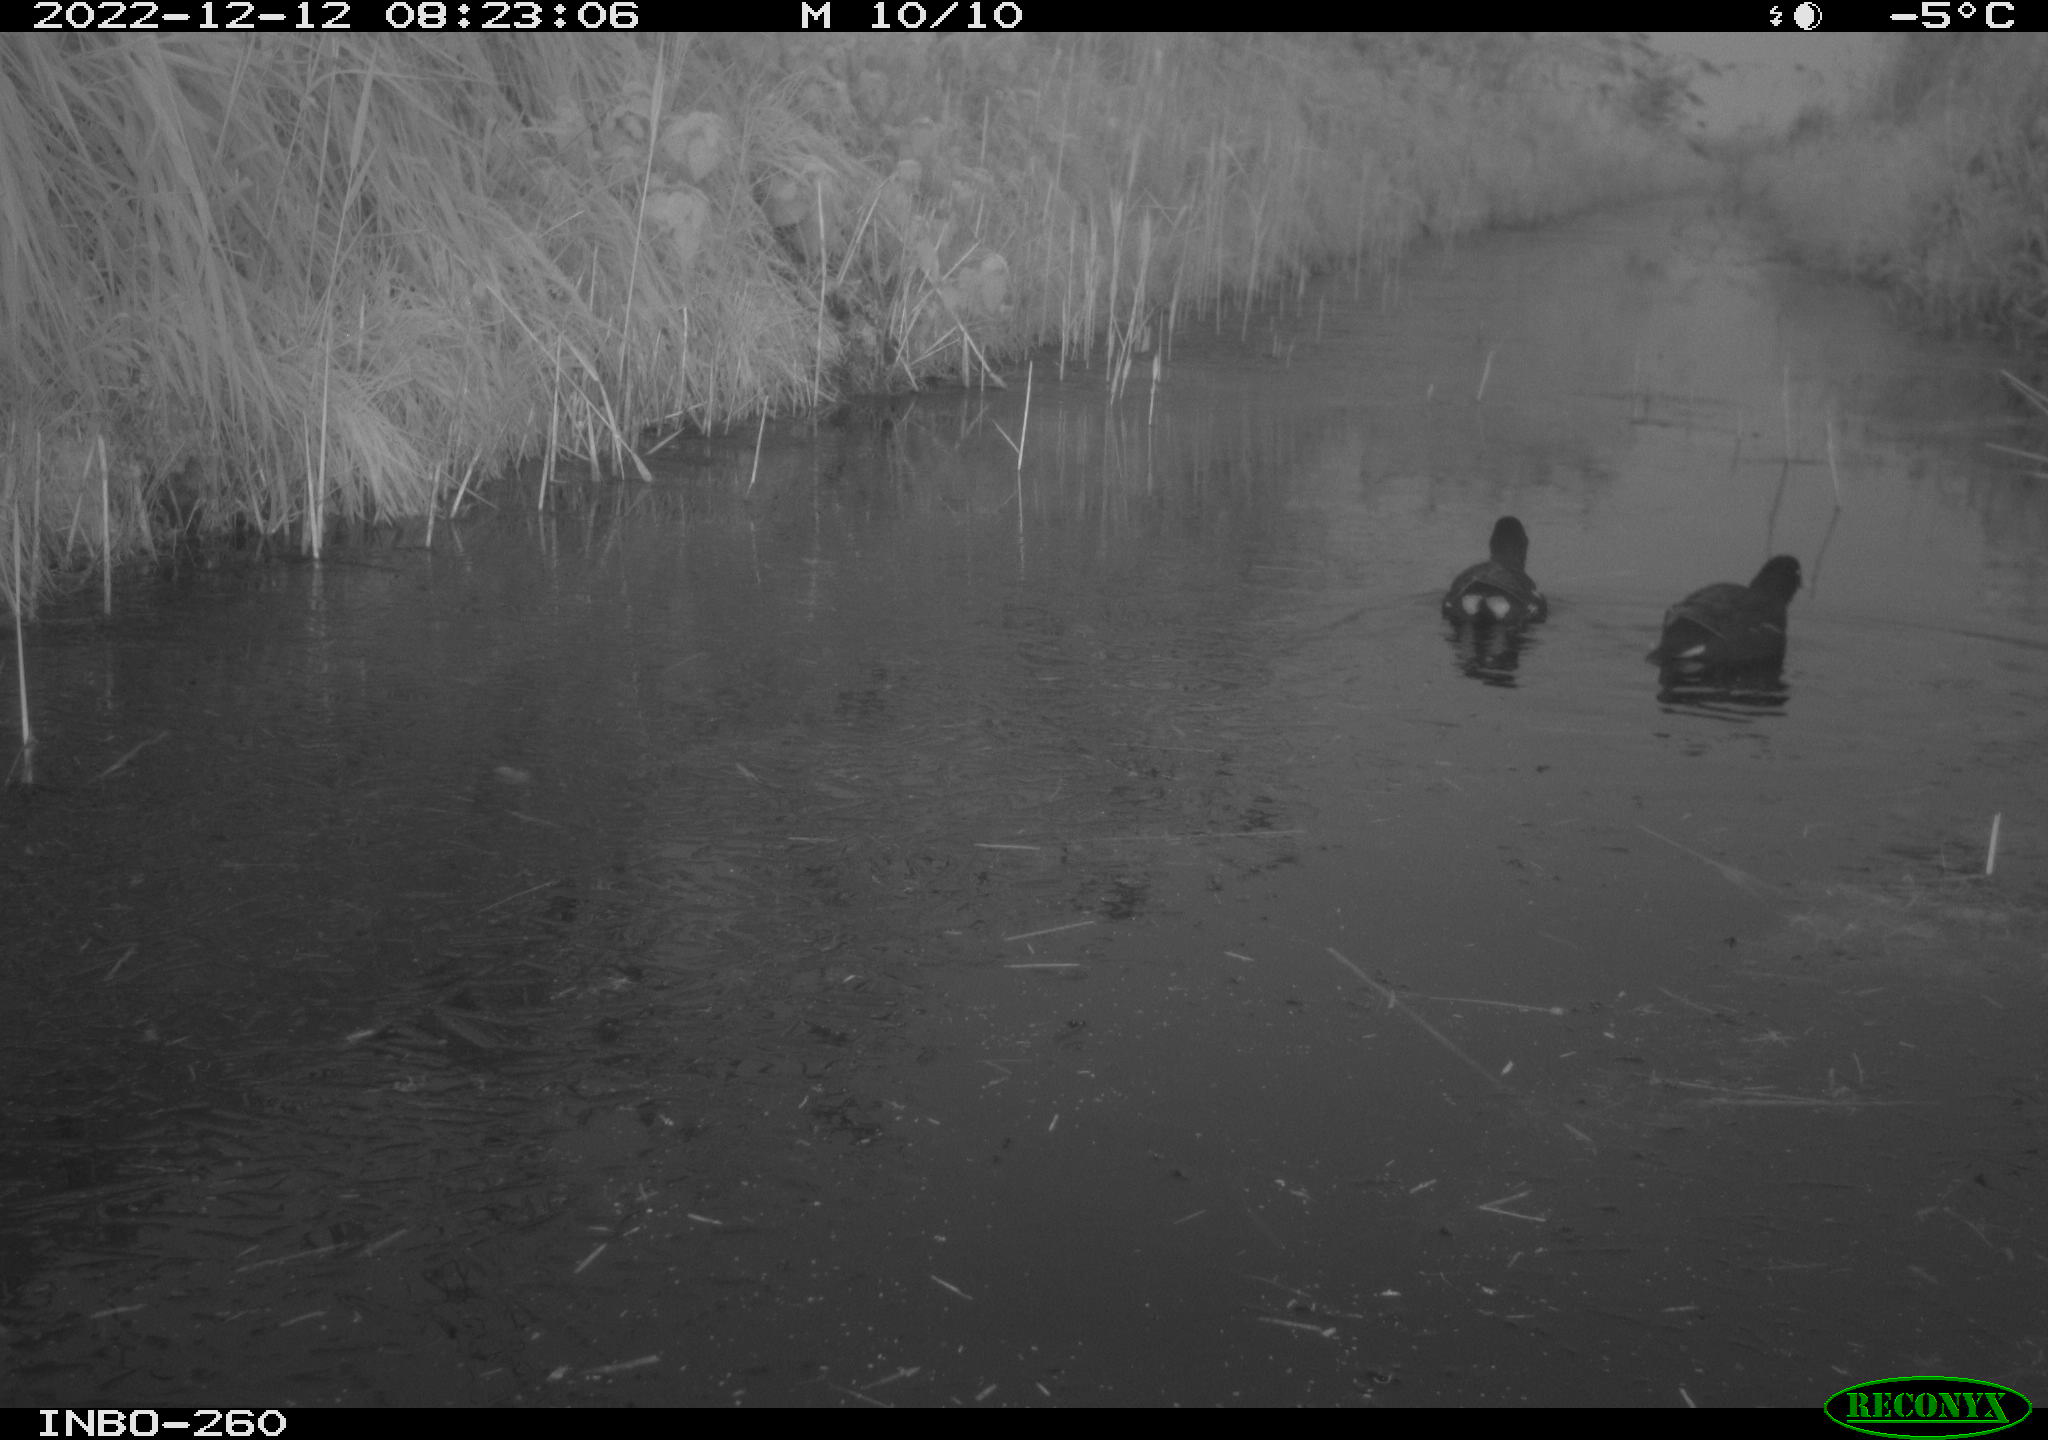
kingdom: Animalia
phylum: Chordata
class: Aves
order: Gruiformes
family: Rallidae
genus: Gallinula
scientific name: Gallinula chloropus
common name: Common moorhen
